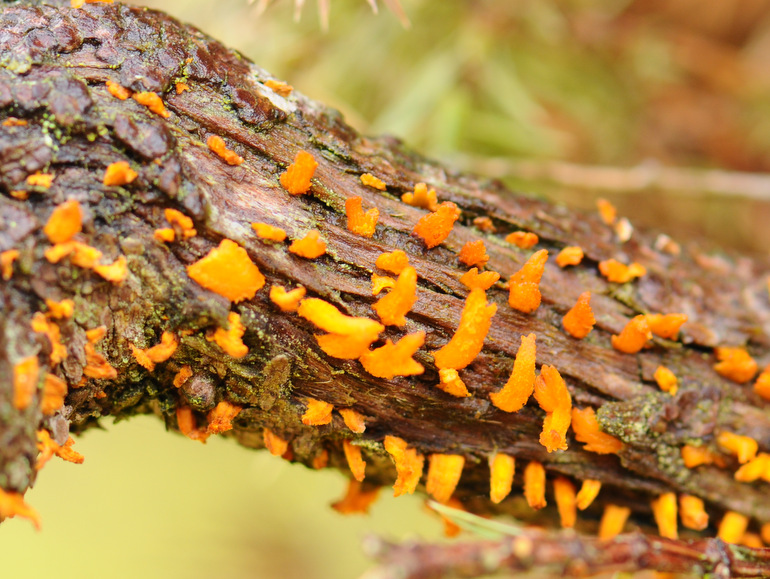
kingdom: Fungi
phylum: Basidiomycota
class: Pucciniomycetes
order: Pucciniales
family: Gymnosporangiaceae
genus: Gymnosporangium
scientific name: Gymnosporangium clavariiforme
